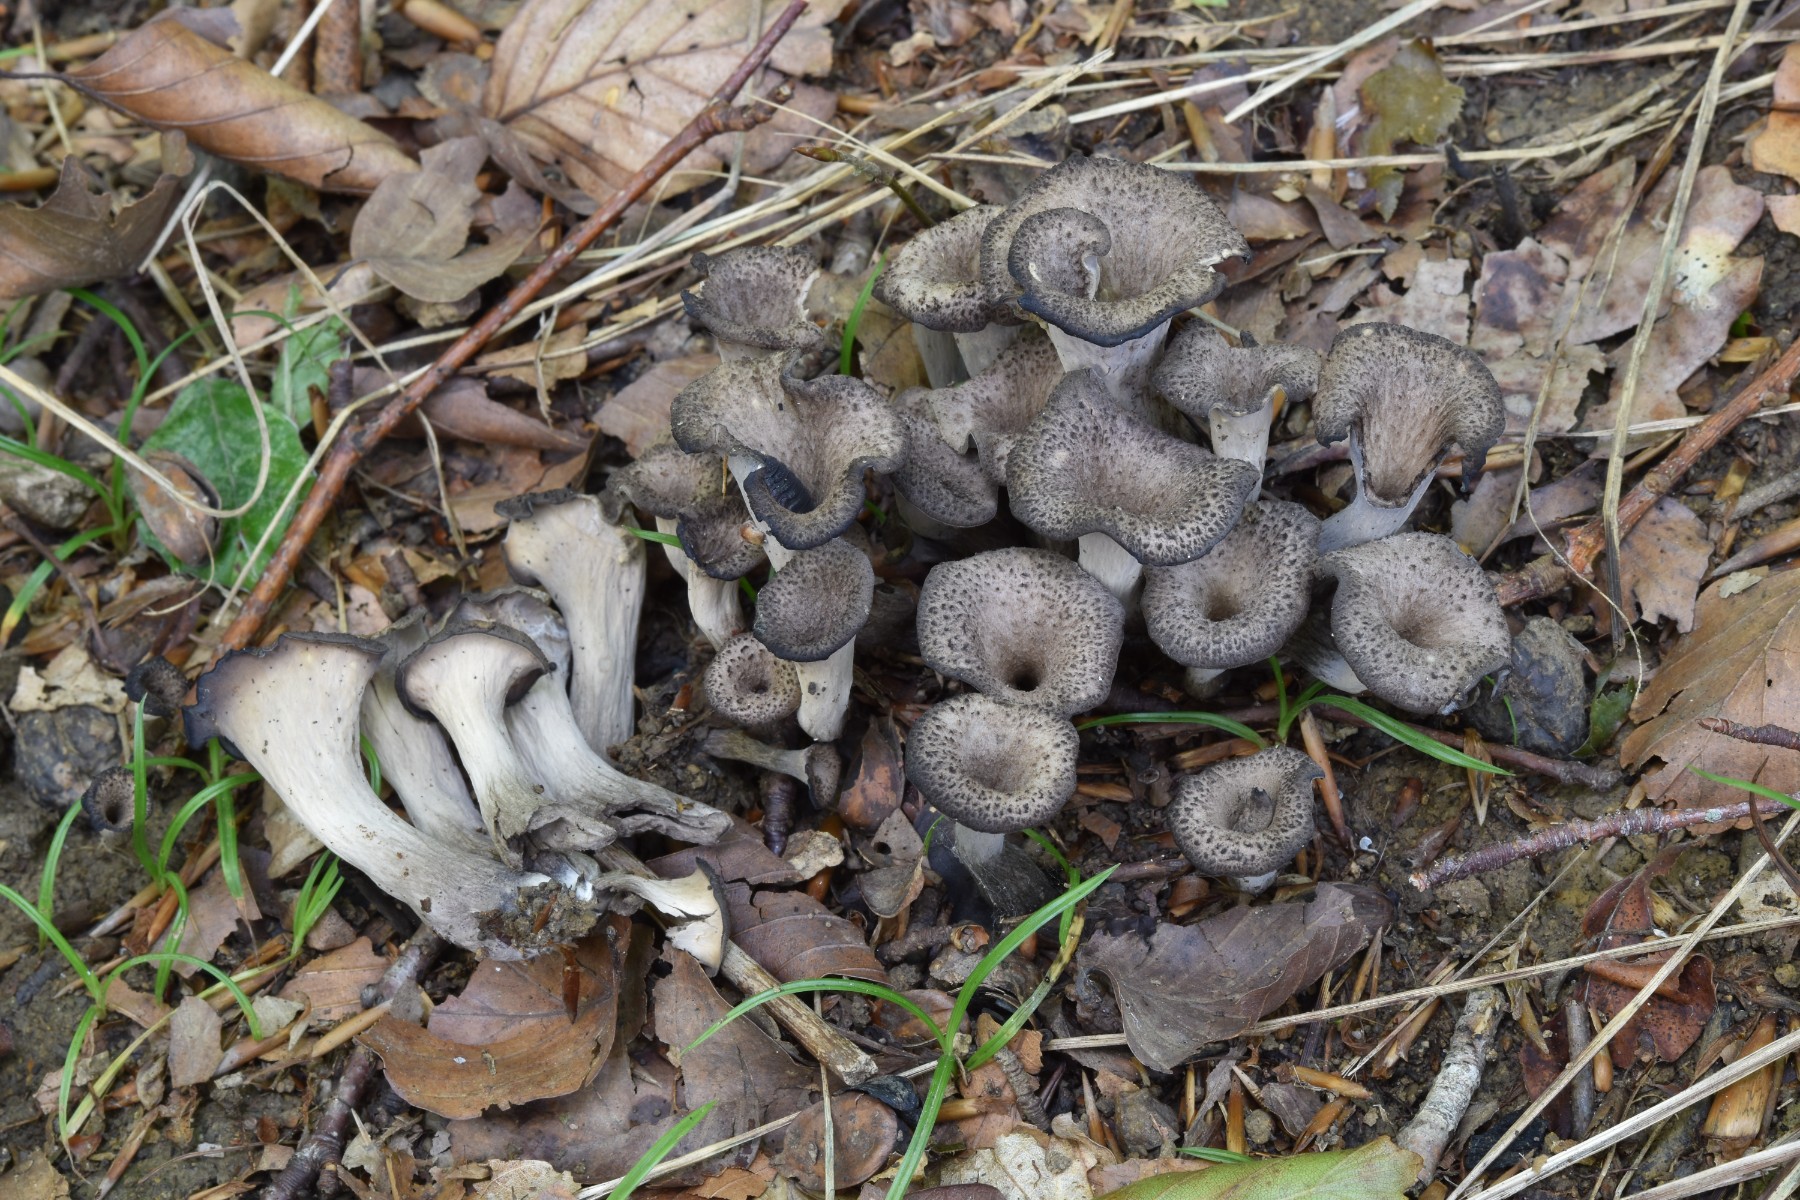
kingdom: Fungi
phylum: Basidiomycota
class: Agaricomycetes
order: Cantharellales
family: Hydnaceae
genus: Craterellus
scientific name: Craterellus cornucopioides
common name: trompetsvamp
